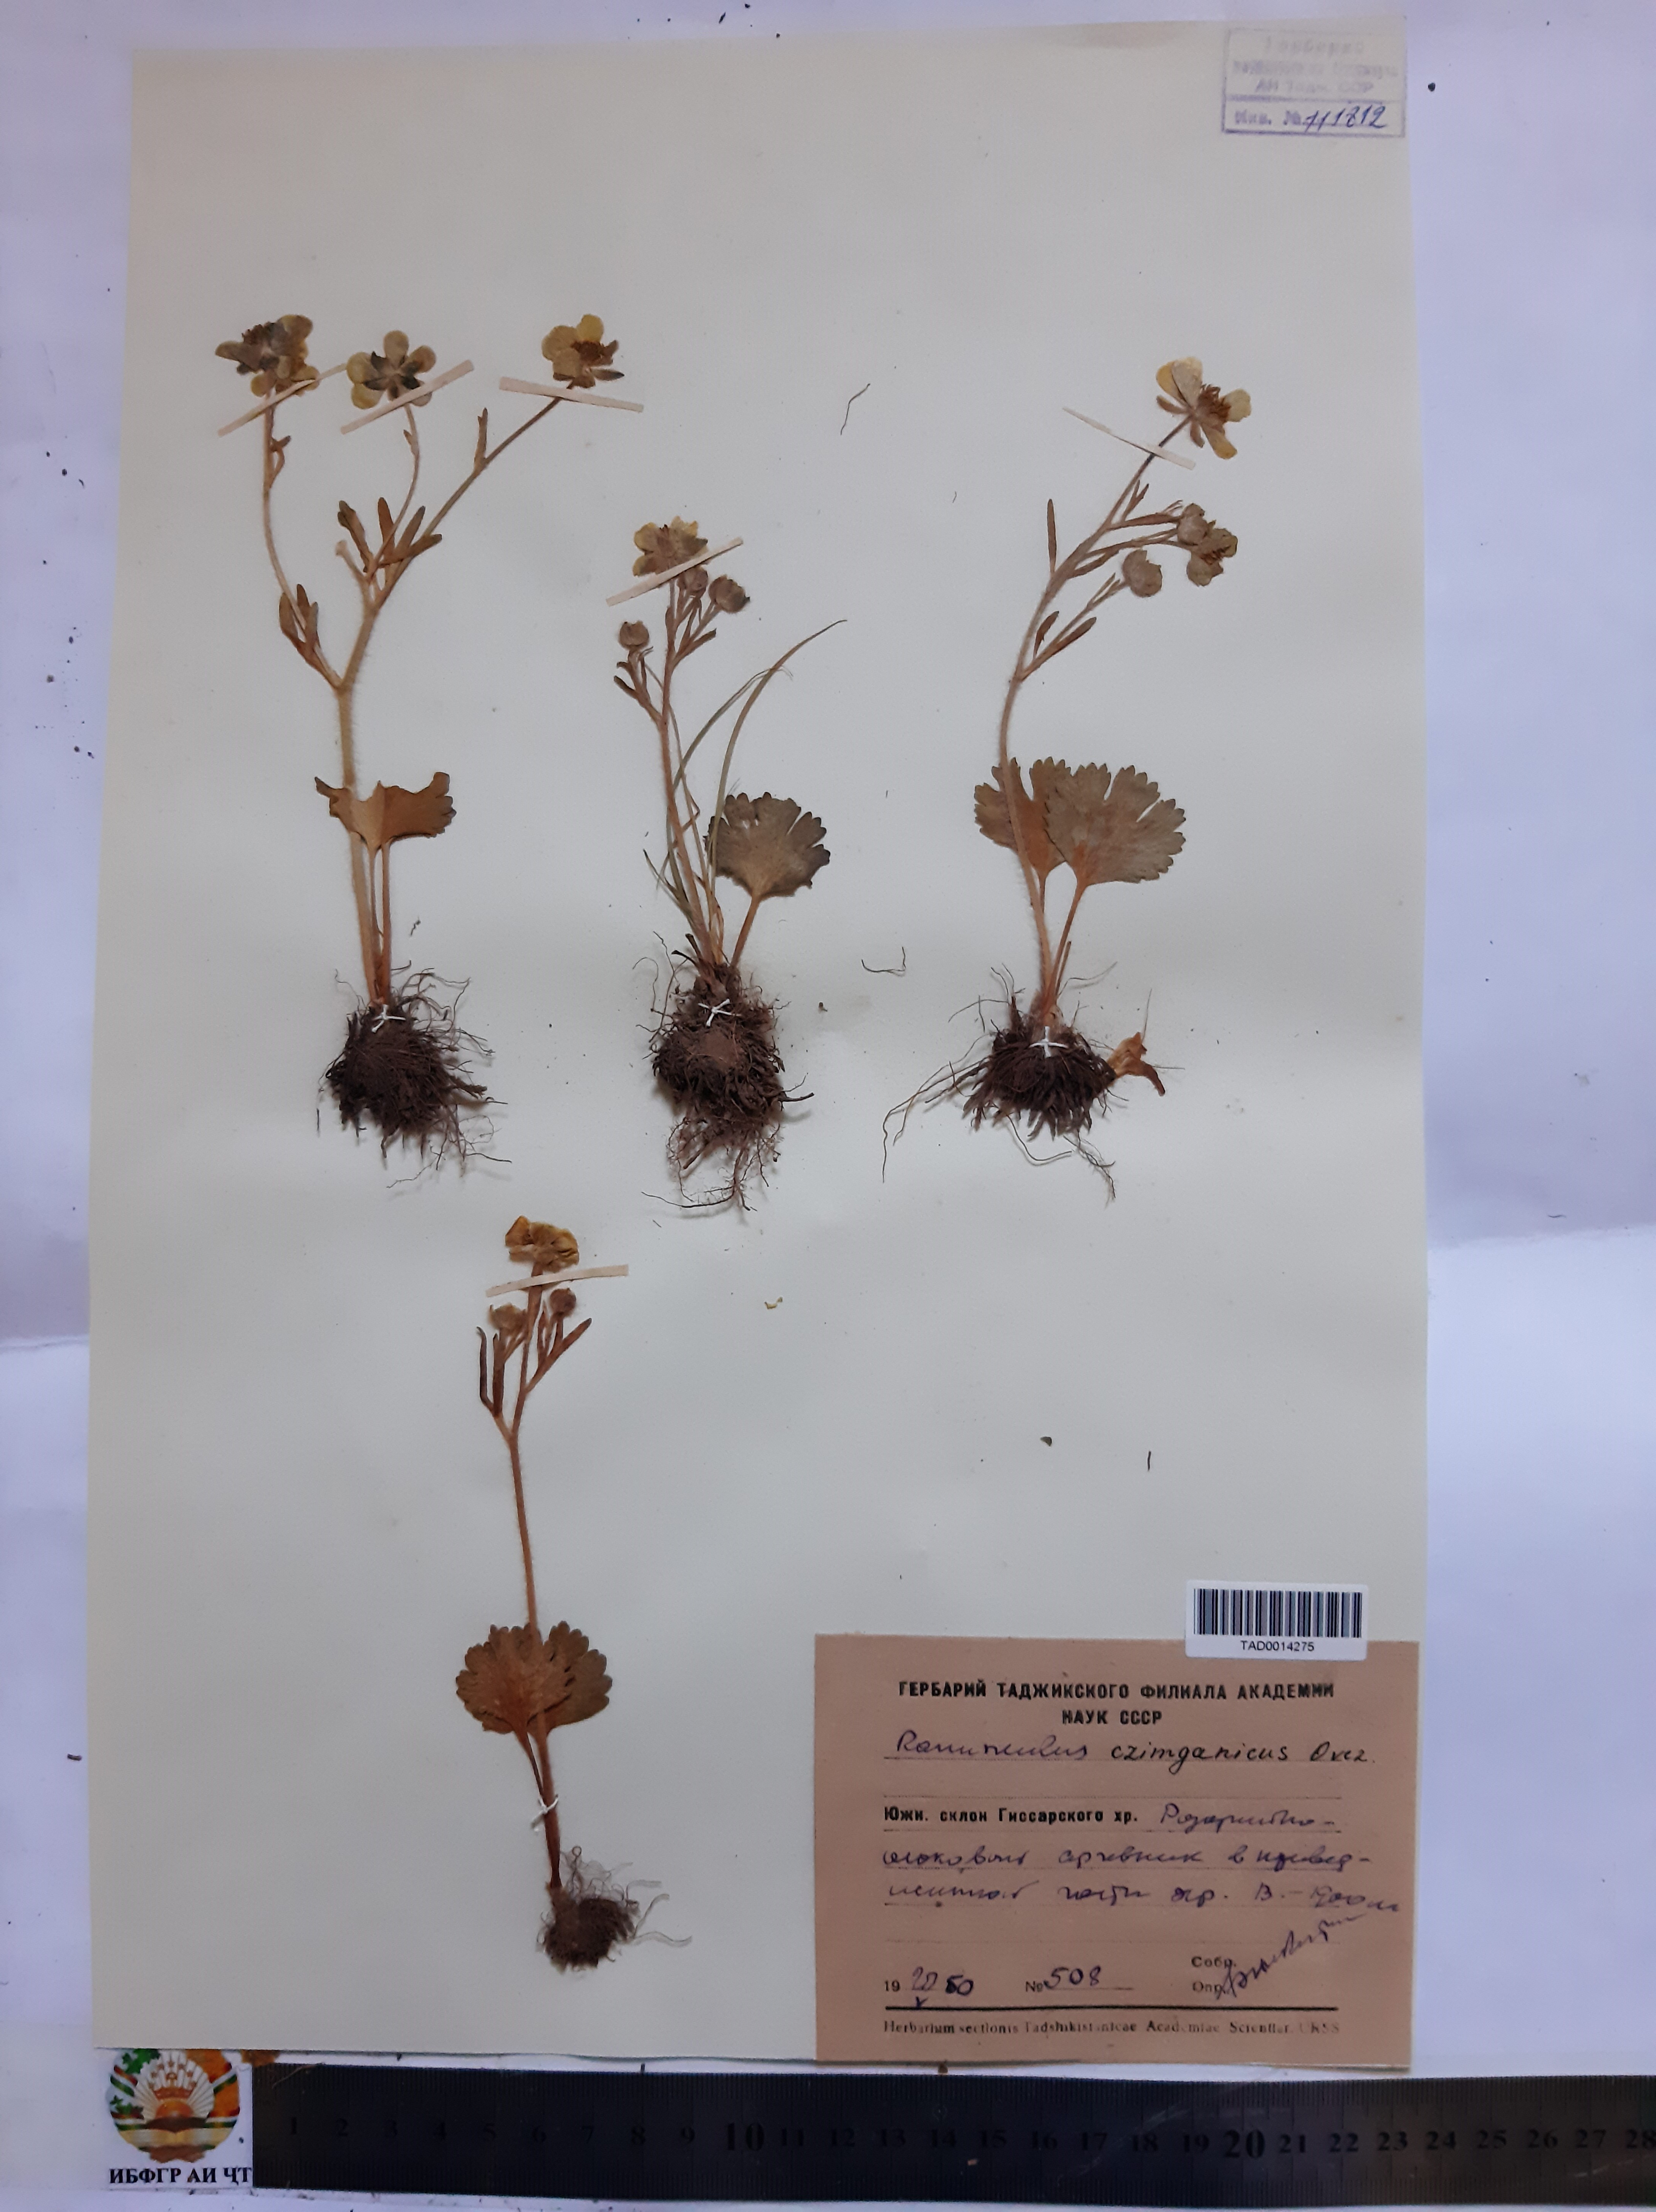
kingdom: Plantae
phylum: Tracheophyta
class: Magnoliopsida
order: Ranunculales
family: Ranunculaceae
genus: Ranunculus
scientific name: Ranunculus czimganicus
